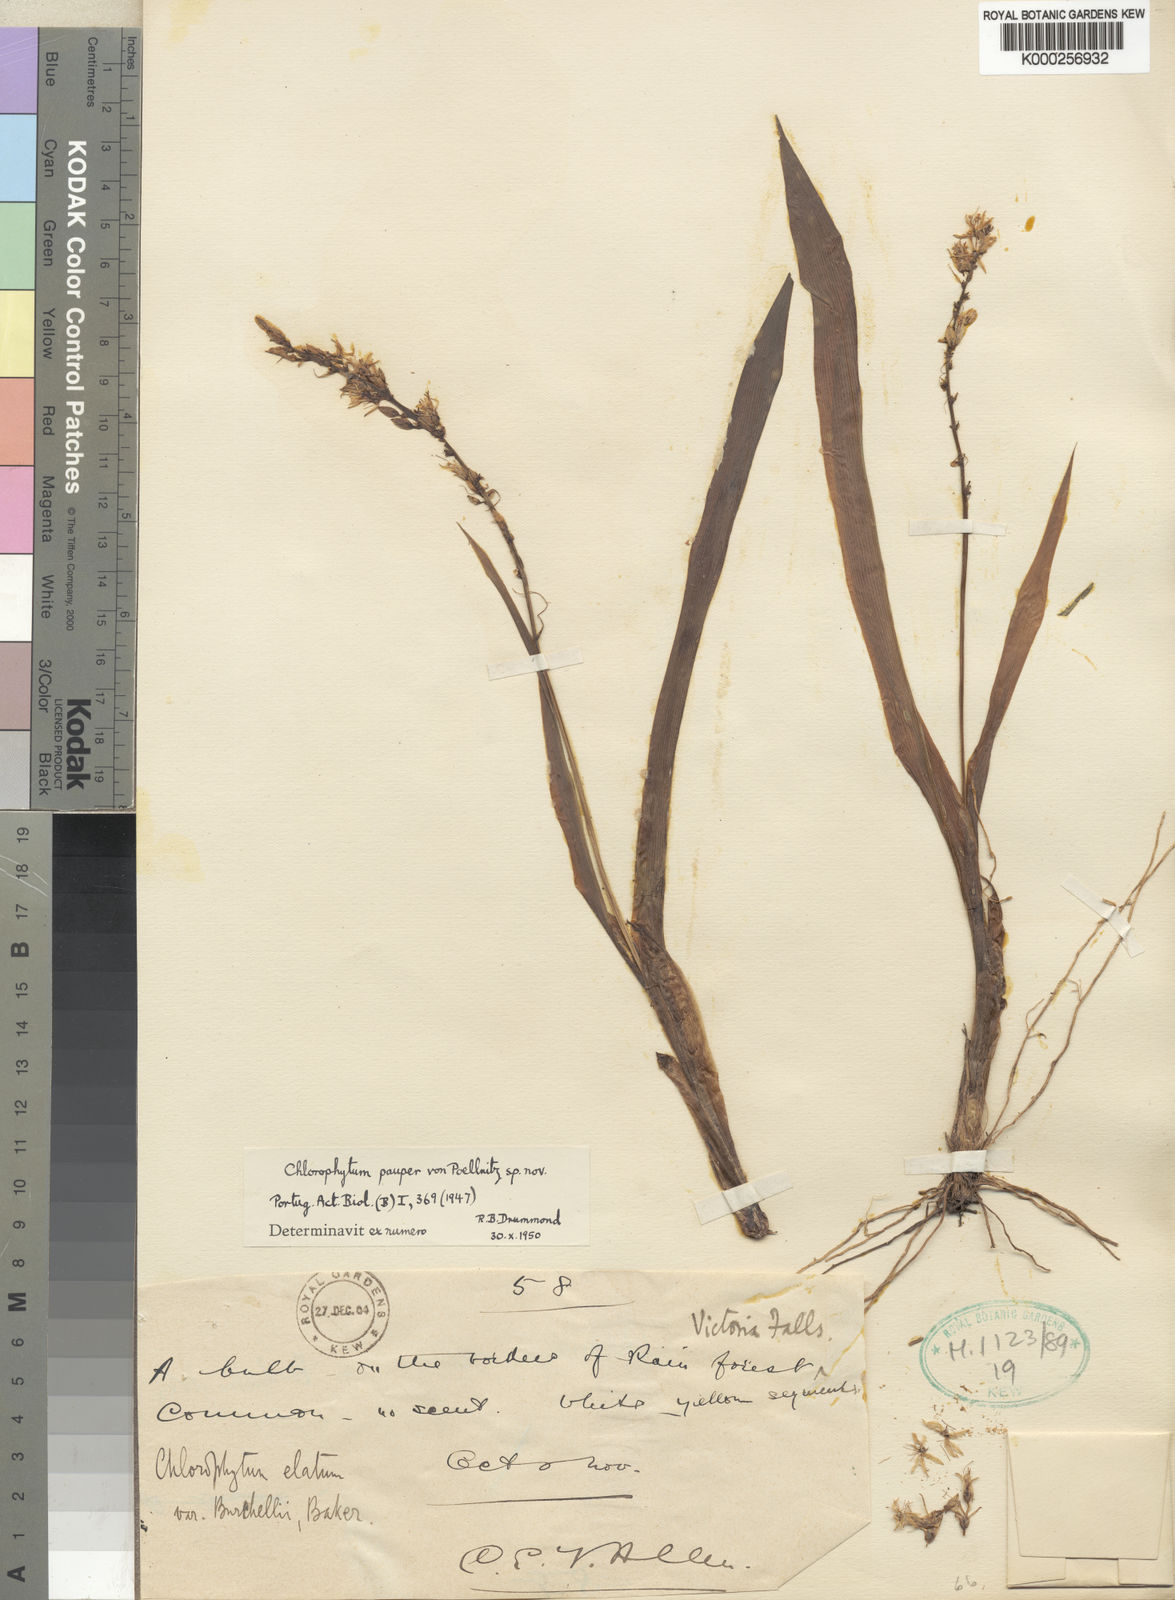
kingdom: Plantae
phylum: Tracheophyta
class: Liliopsida
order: Asparagales
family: Asparagaceae
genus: Chlorophytum
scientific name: Chlorophytum pauper
